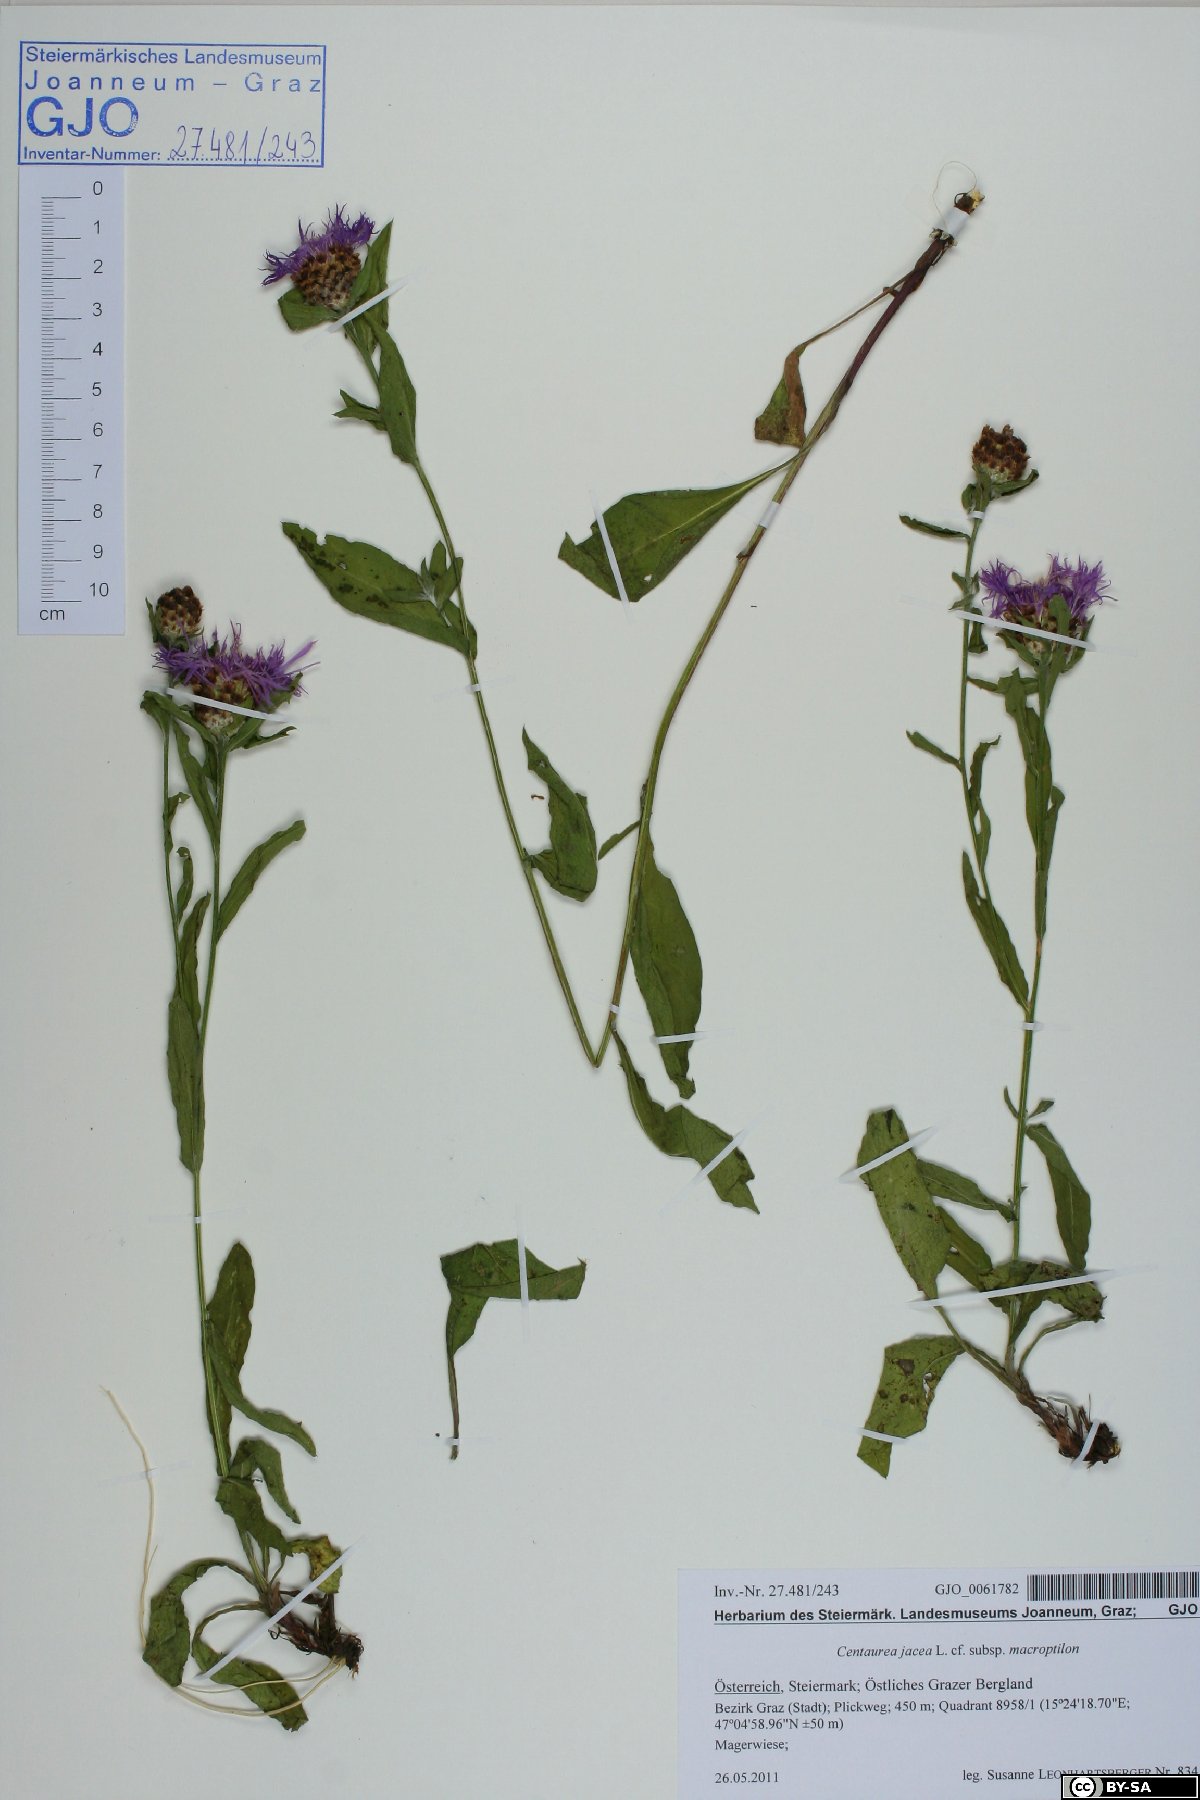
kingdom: Plantae
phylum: Tracheophyta
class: Magnoliopsida
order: Asterales
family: Asteraceae
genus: Centaurea
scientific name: Centaurea
